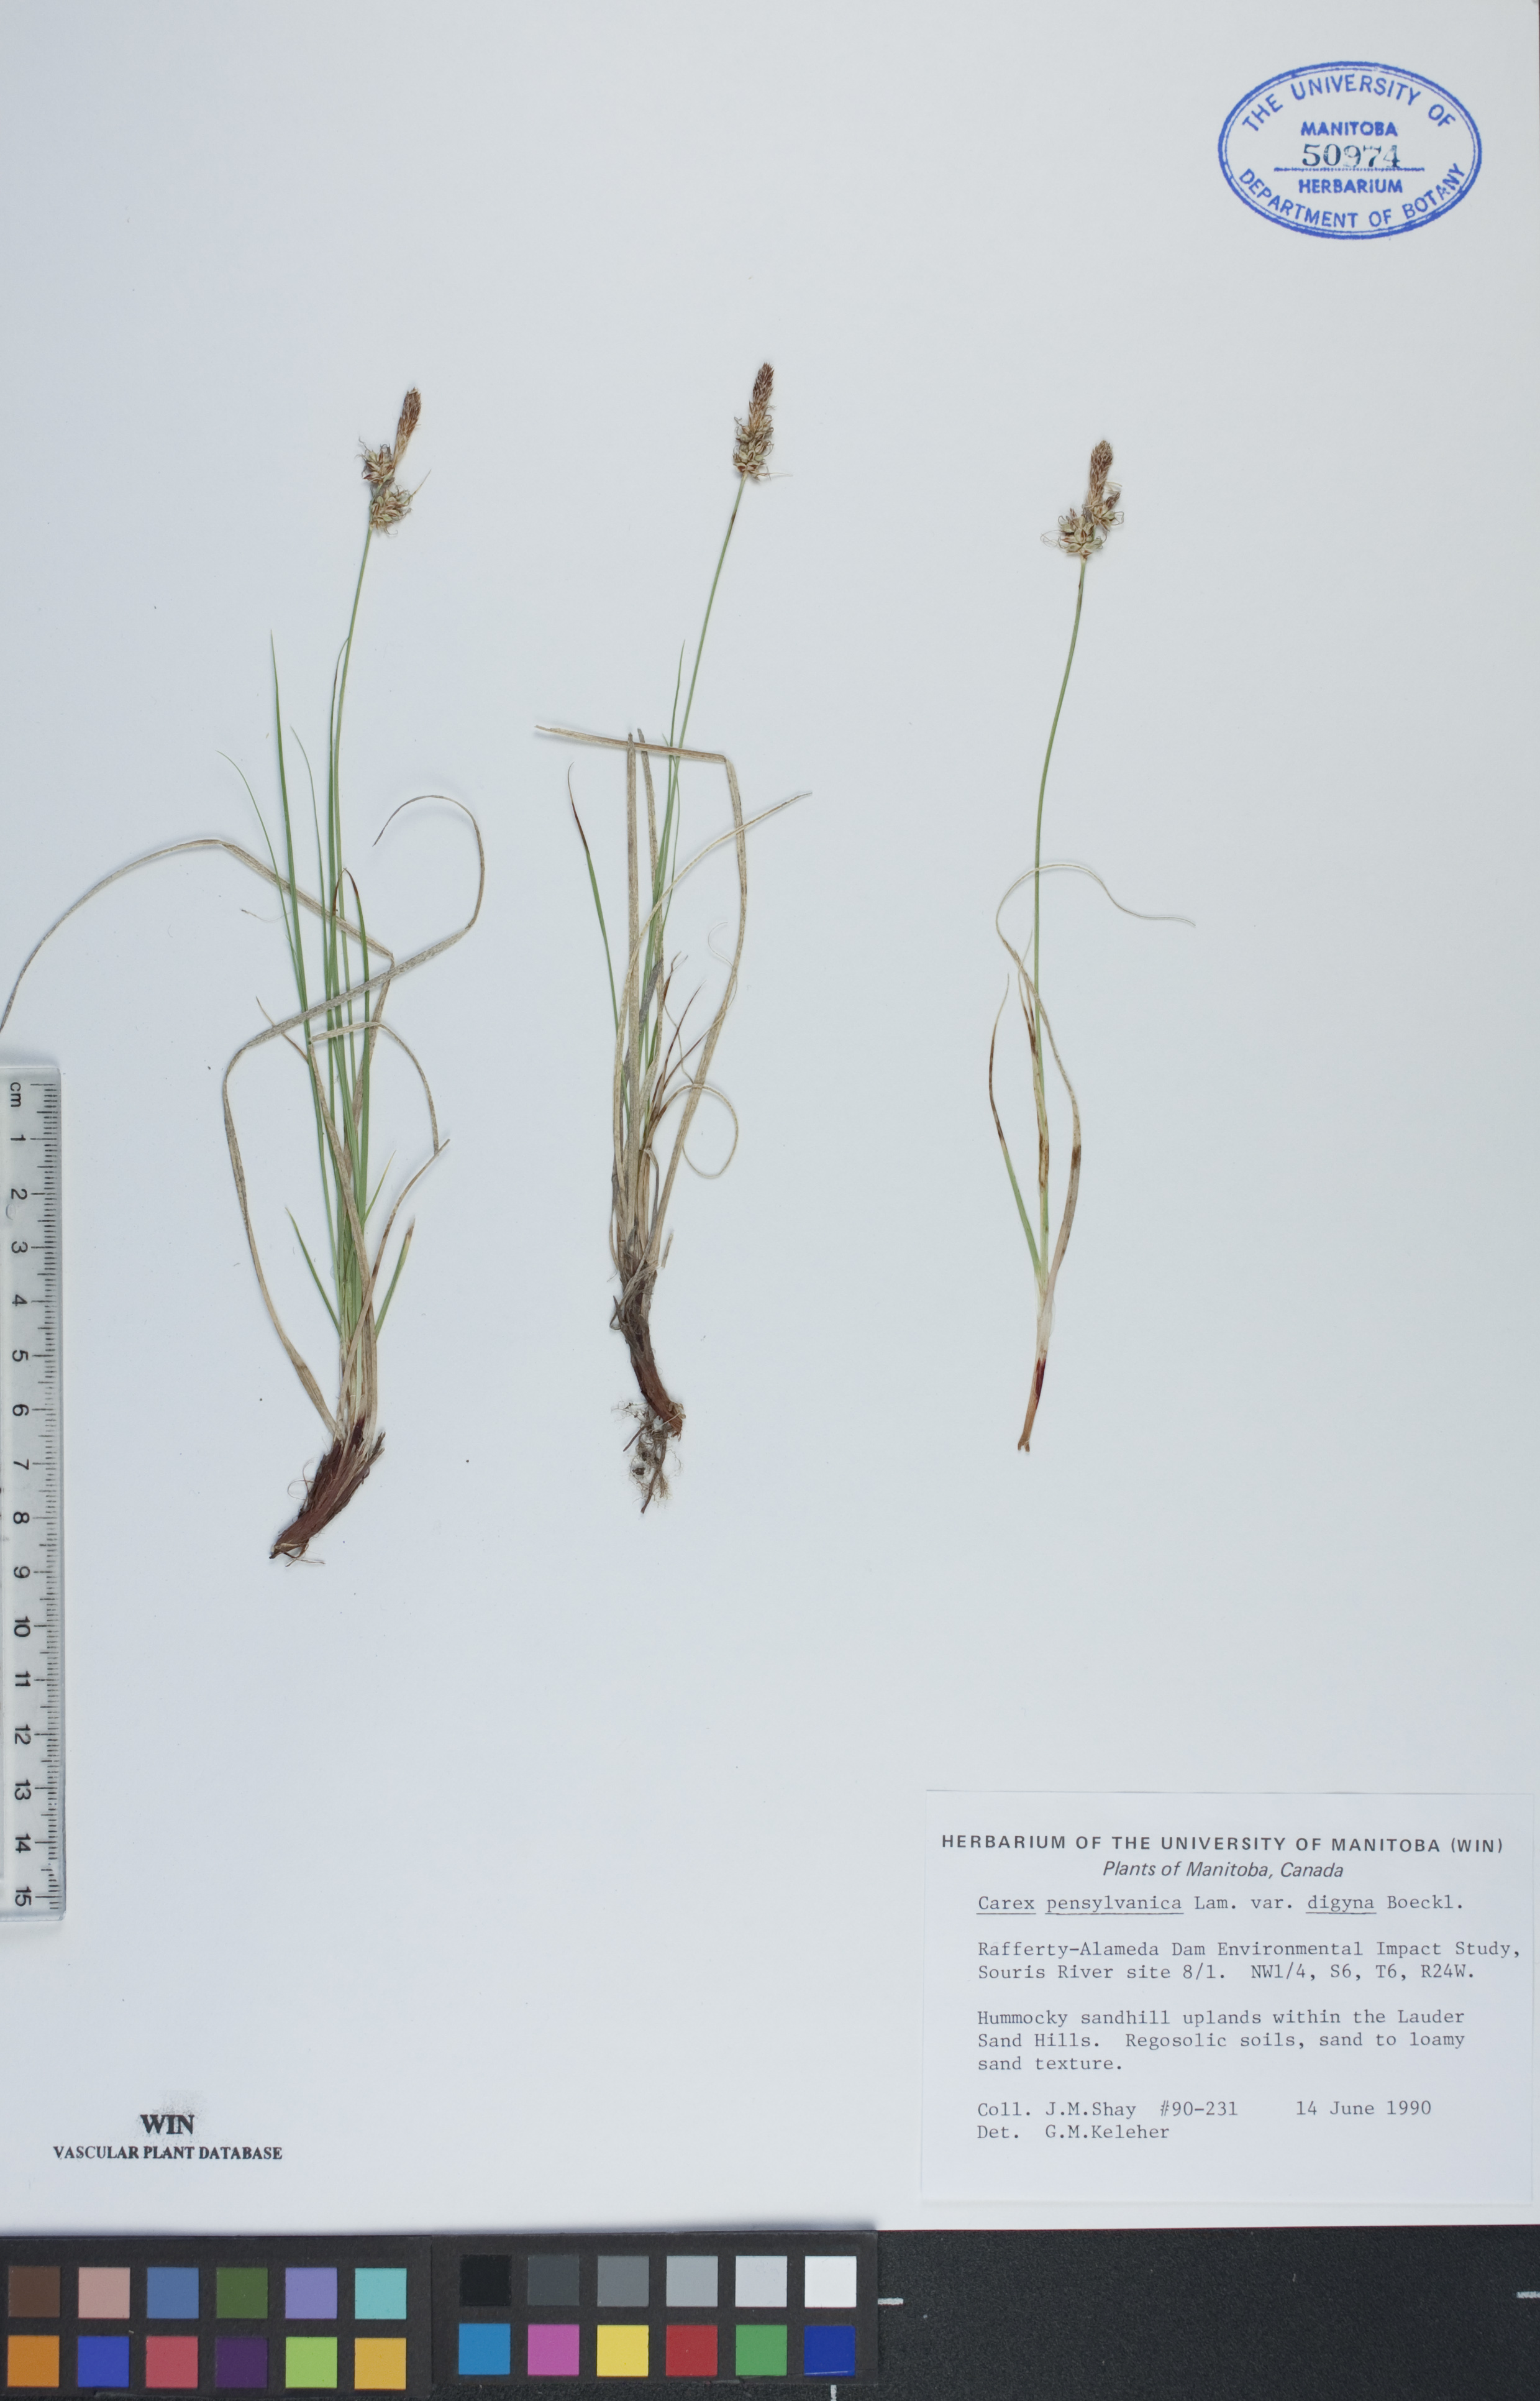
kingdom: Plantae
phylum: Tracheophyta
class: Liliopsida
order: Poales
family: Cyperaceae
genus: Carex
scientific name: Carex inops
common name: Long-stolon sedge
